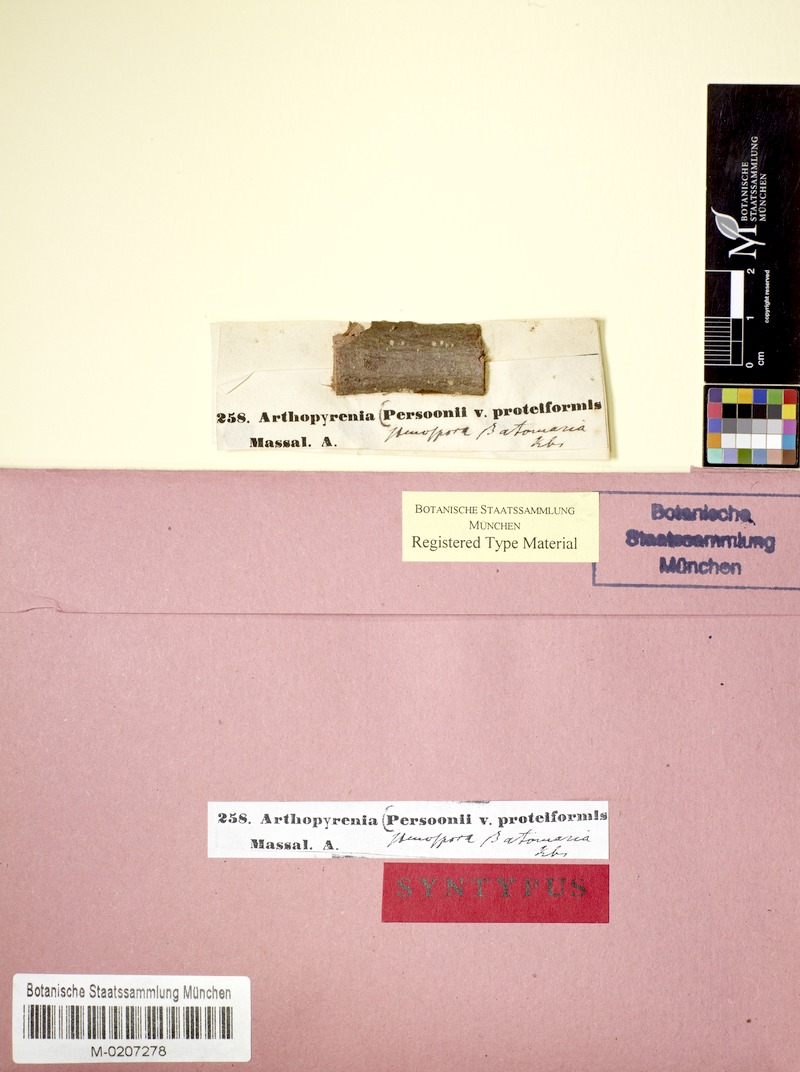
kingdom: Fungi
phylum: Ascomycota
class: Dothideomycetes
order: Pleosporales
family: Naetrocymbaceae
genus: Naetrocymbe
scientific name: Naetrocymbe punctiformis
